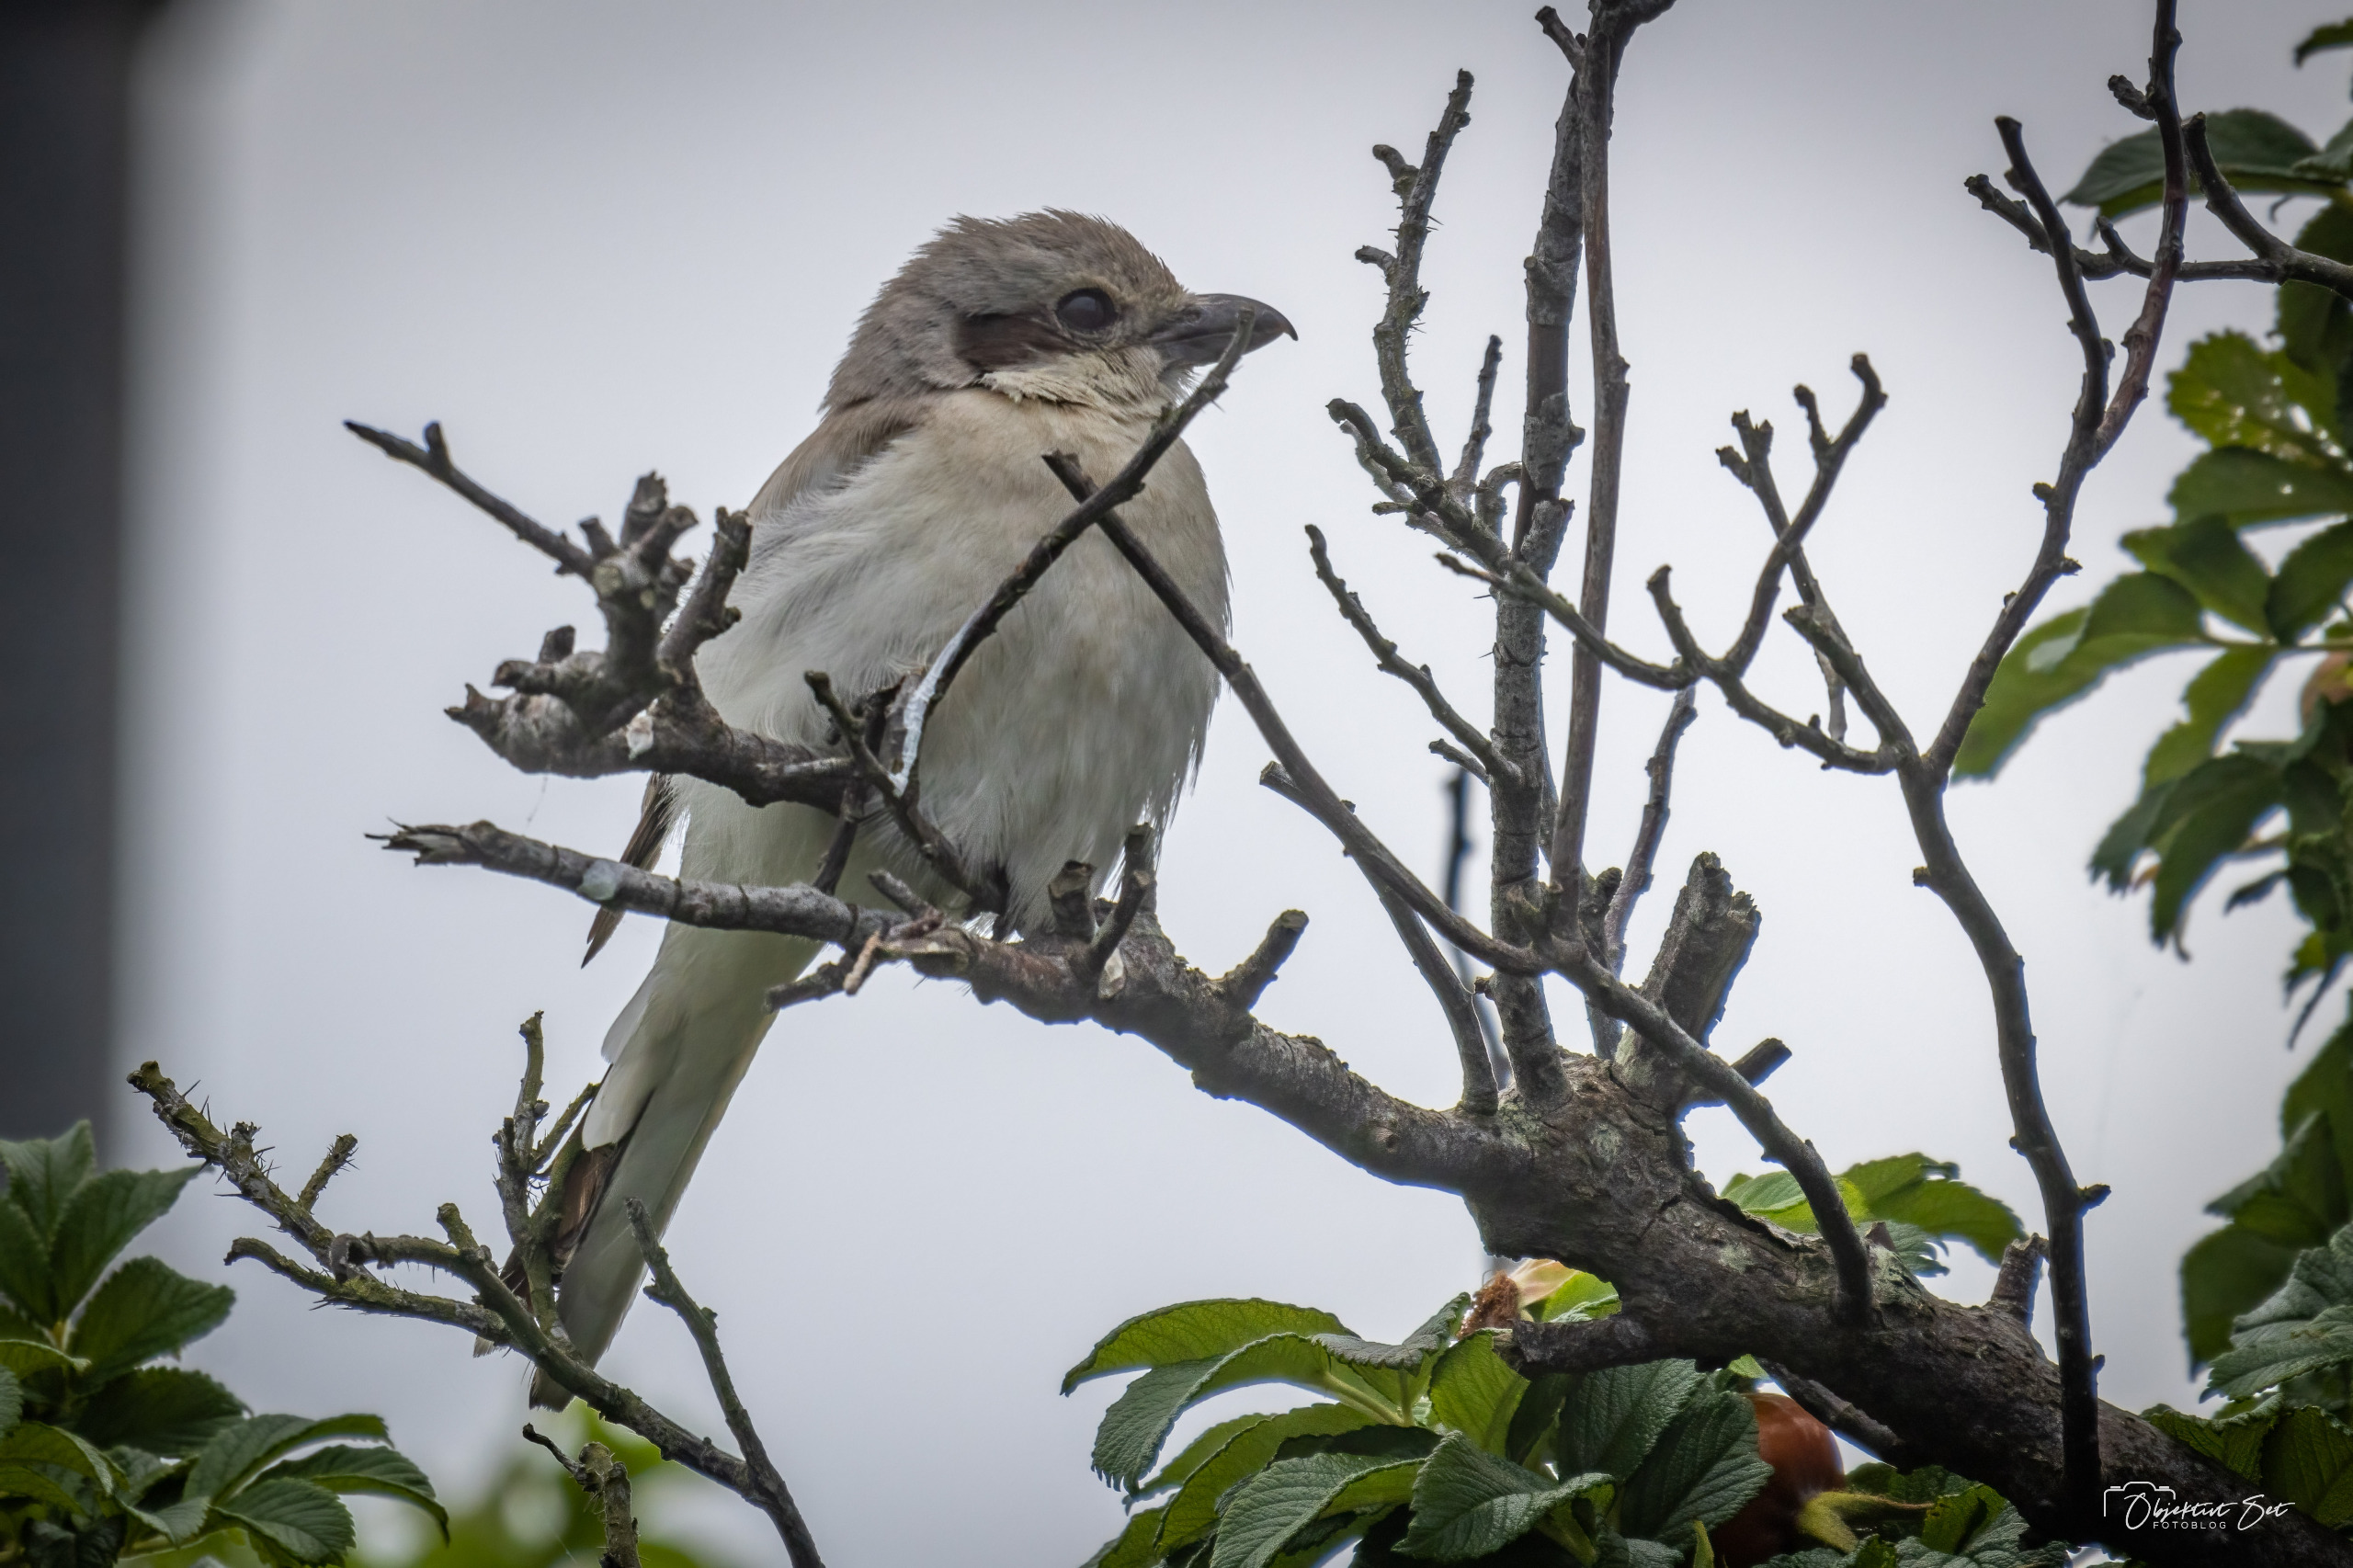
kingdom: Animalia
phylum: Chordata
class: Aves
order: Passeriformes
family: Laniidae
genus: Lanius
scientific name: Lanius excubitor
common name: Ørkentornskade
